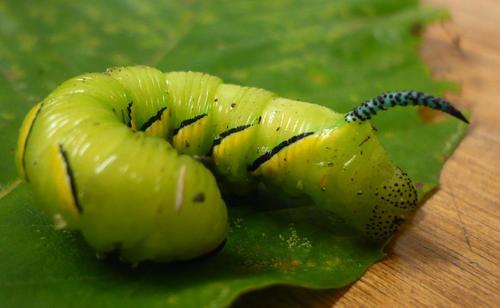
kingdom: Animalia
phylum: Arthropoda
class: Insecta
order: Lepidoptera
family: Sphingidae
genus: Sphinx
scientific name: Sphinx kalmiae
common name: Laurel sphinx
